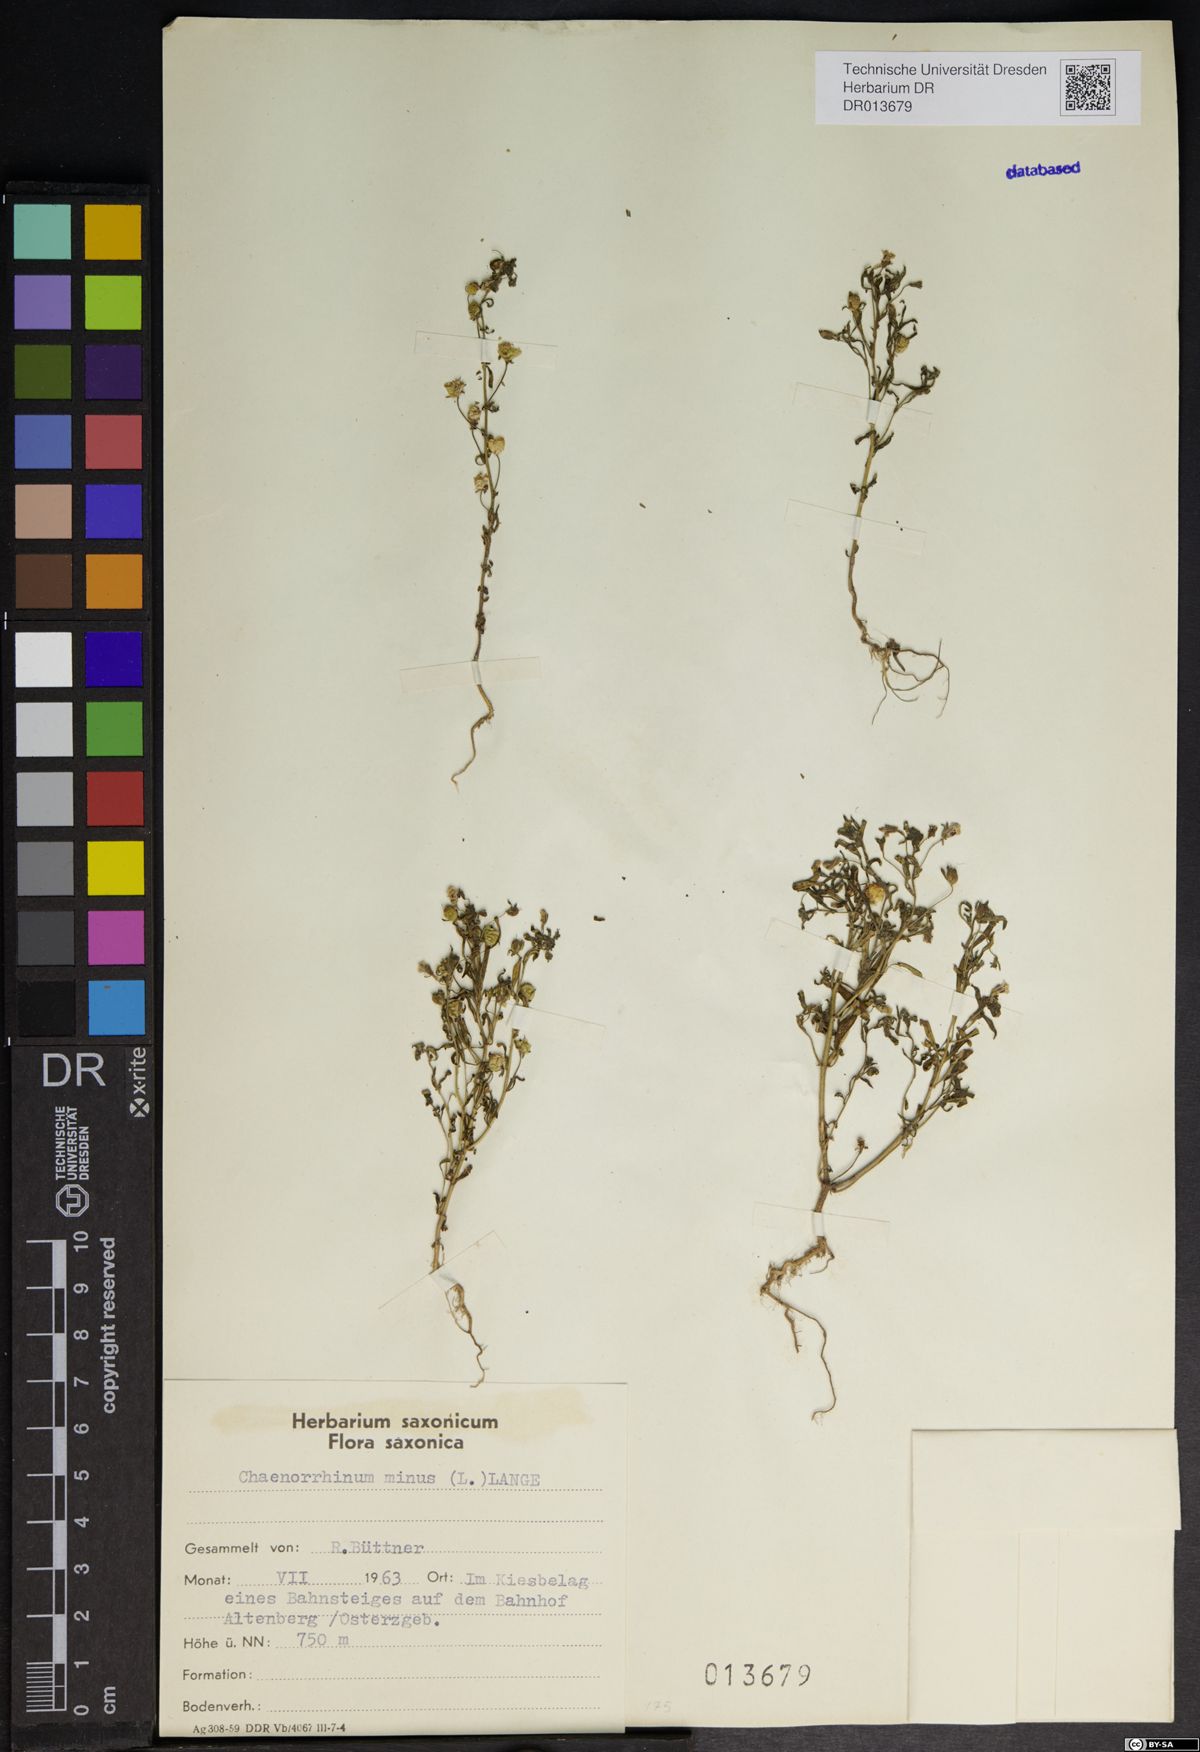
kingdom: Plantae
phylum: Tracheophyta
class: Magnoliopsida
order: Lamiales
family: Plantaginaceae
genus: Chaenorhinum
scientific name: Chaenorhinum minus
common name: Dwarf snapdragon
